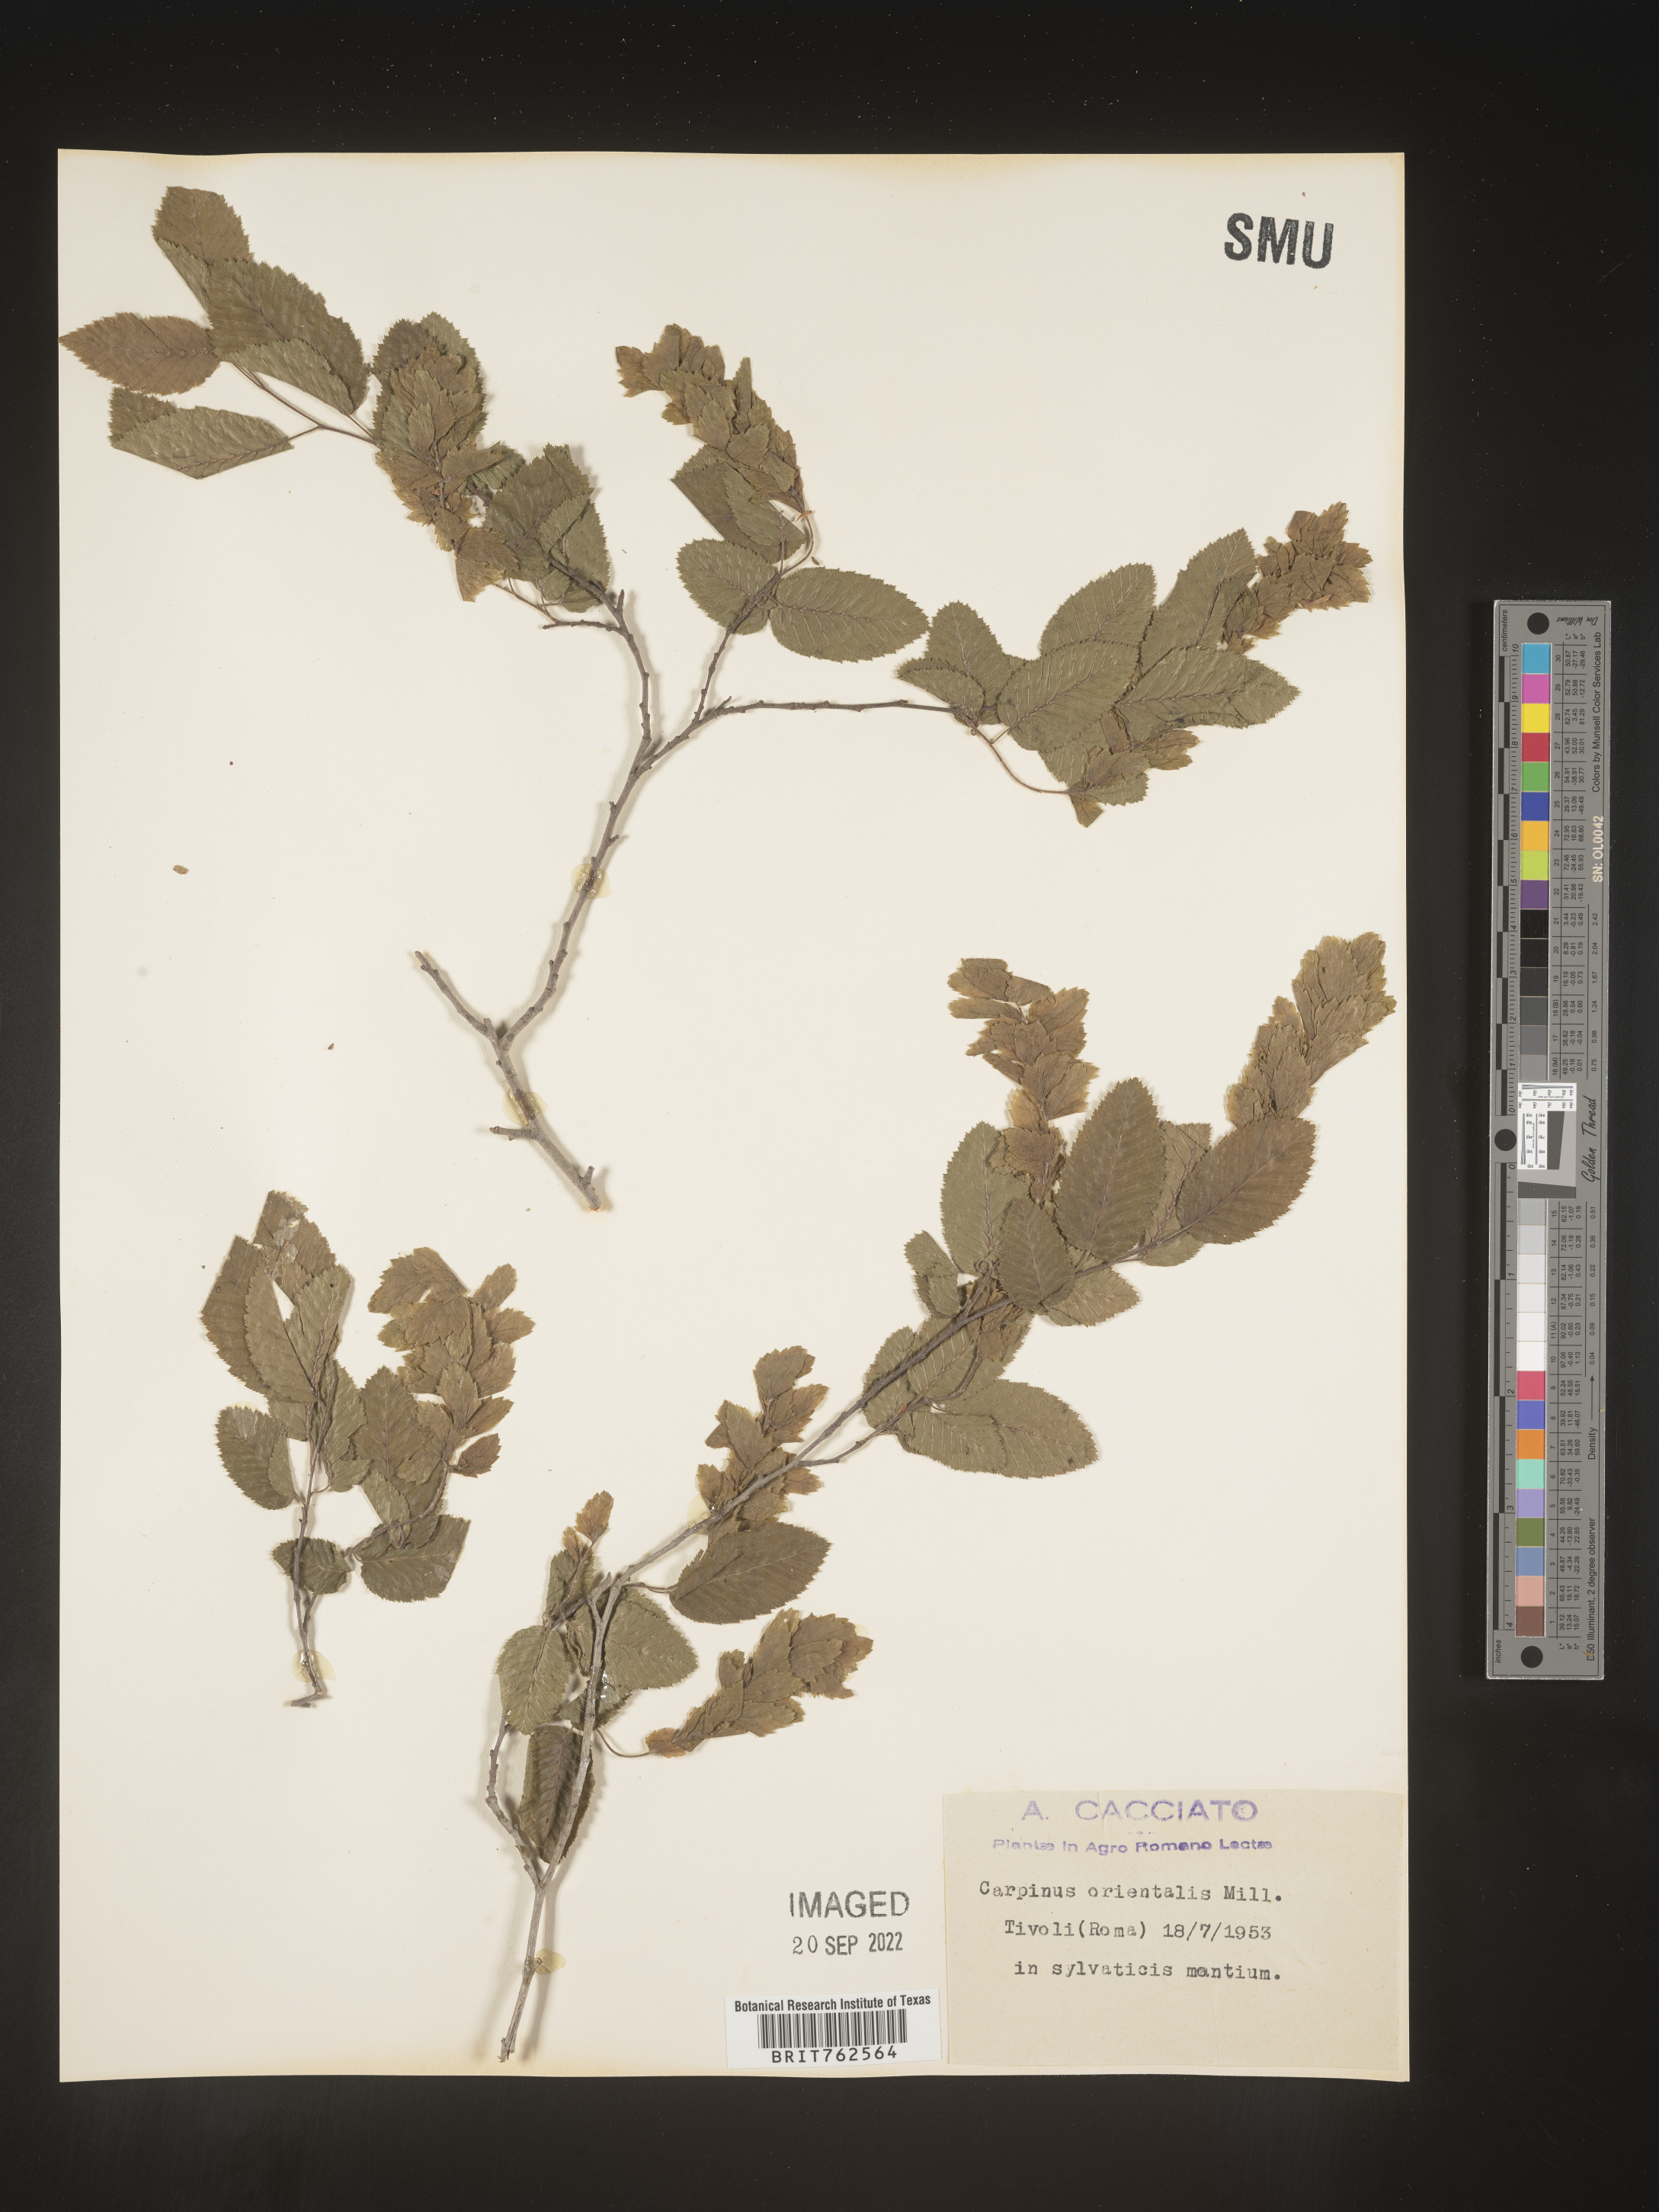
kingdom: Plantae
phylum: Tracheophyta
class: Magnoliopsida
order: Fagales
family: Betulaceae
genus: Carpinus
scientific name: Carpinus
